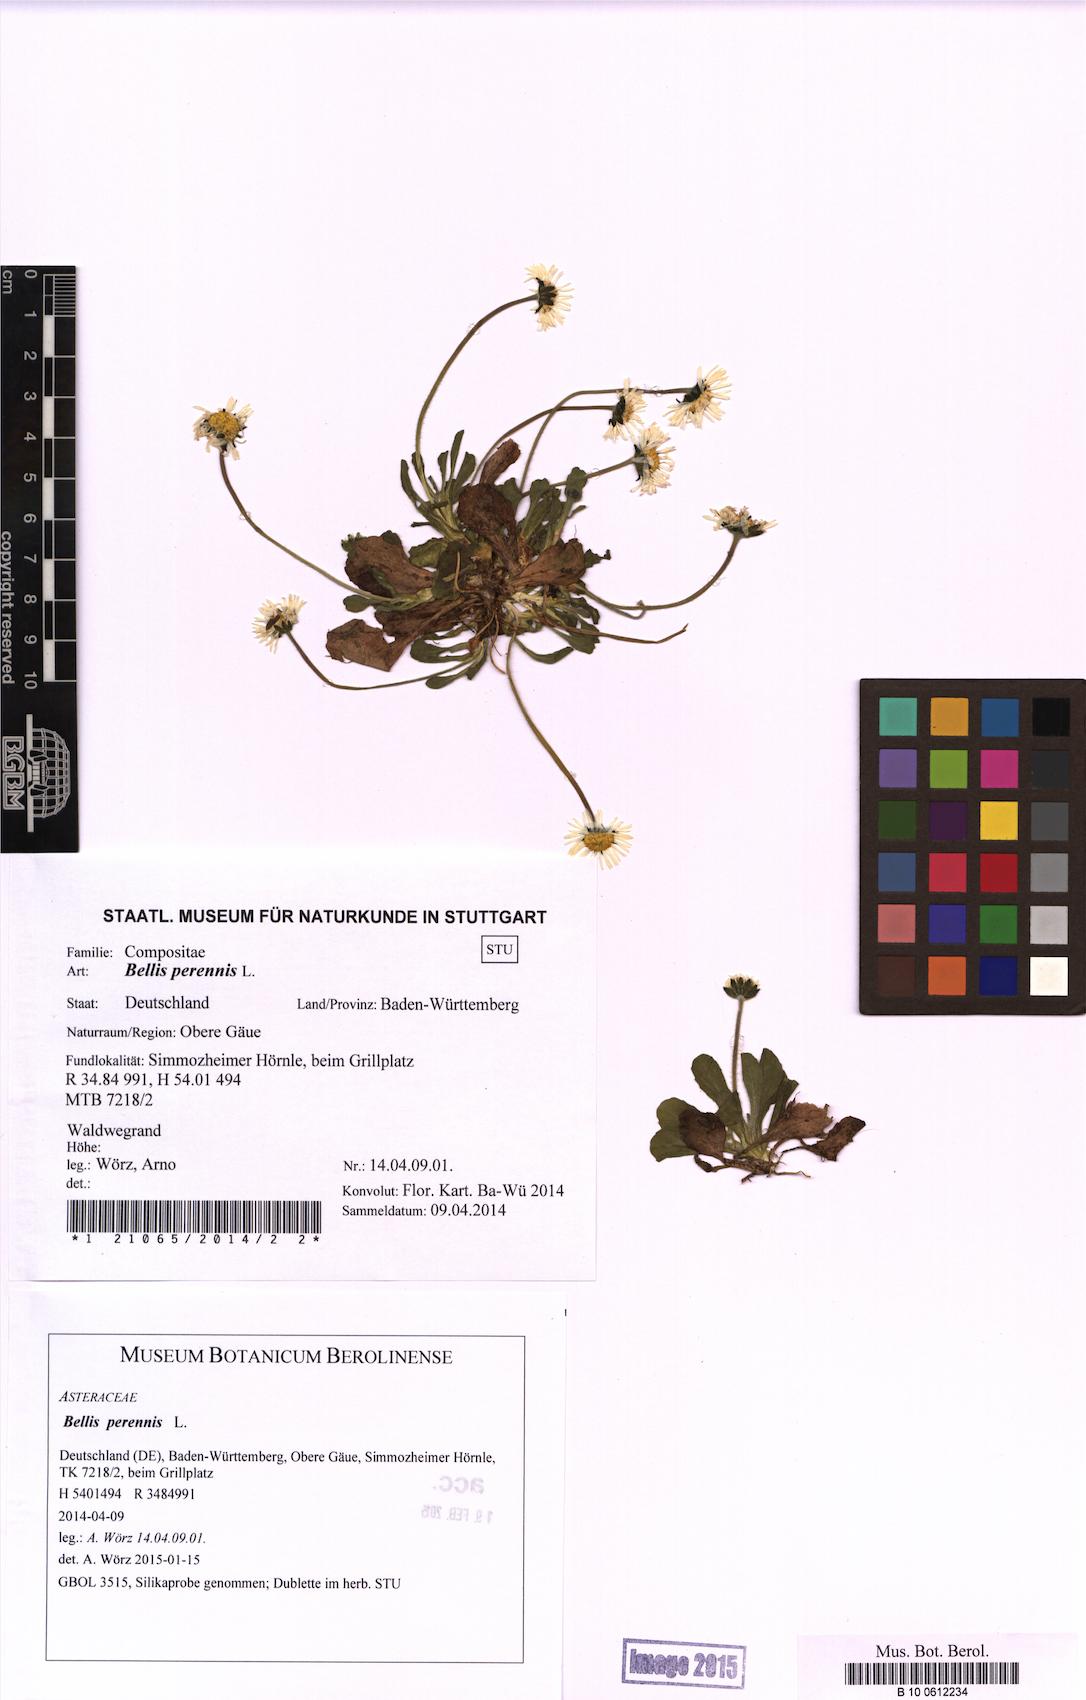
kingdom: Plantae
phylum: Tracheophyta
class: Magnoliopsida
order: Asterales
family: Asteraceae
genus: Bellis
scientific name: Bellis perennis
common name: Lawndaisy
